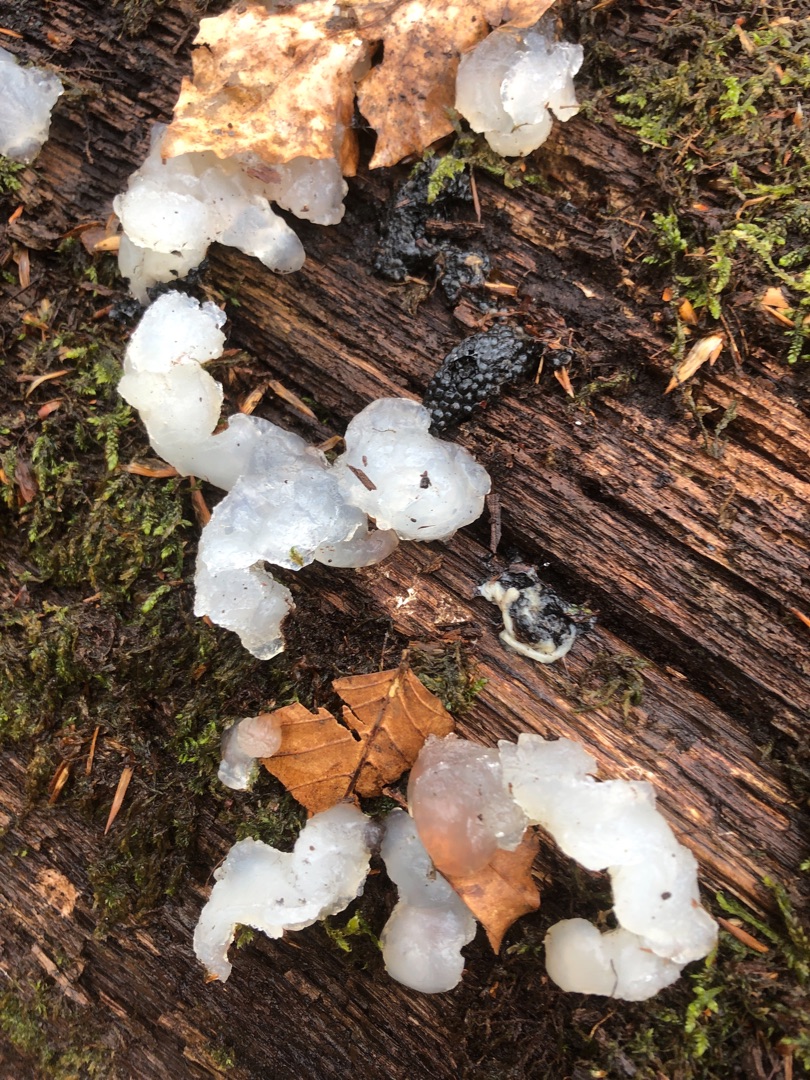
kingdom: Animalia
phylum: Chordata
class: Amphibia
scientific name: Amphibia
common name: Padder
